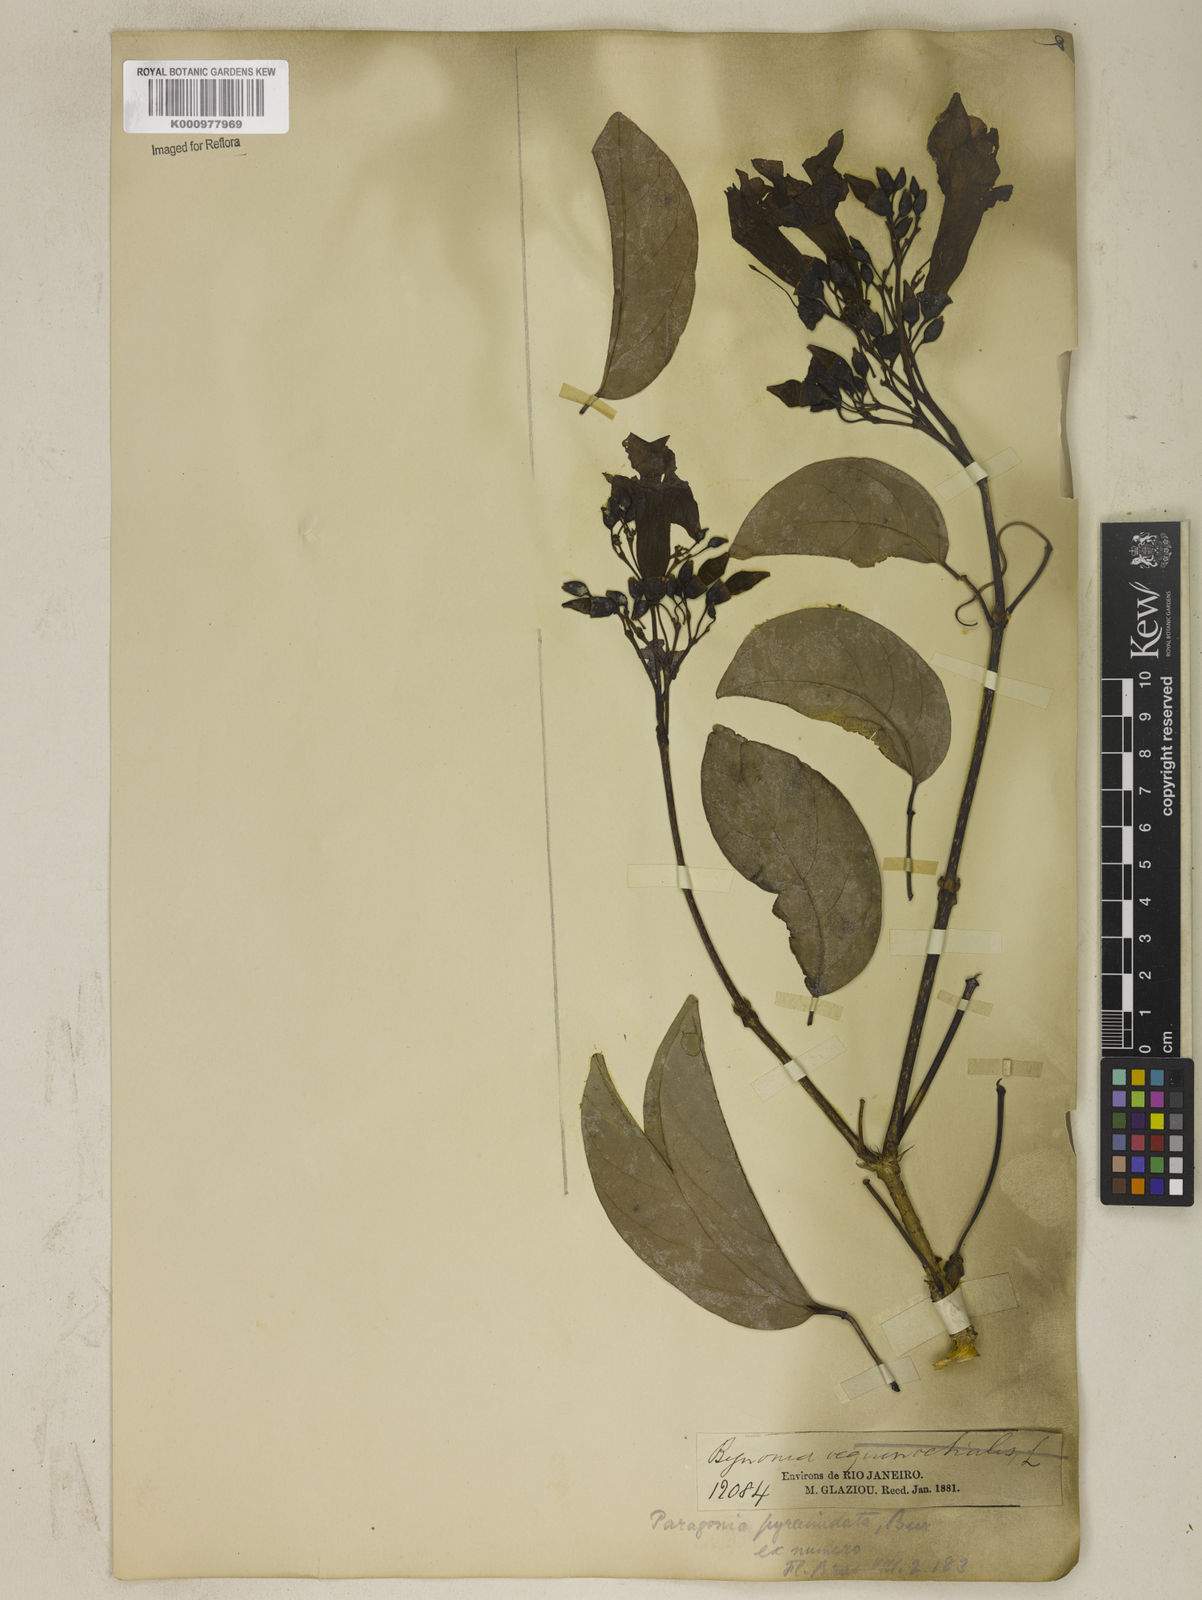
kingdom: Plantae
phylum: Tracheophyta
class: Magnoliopsida
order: Lamiales
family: Bignoniaceae
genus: Tanaecium
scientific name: Tanaecium pyramidatum
